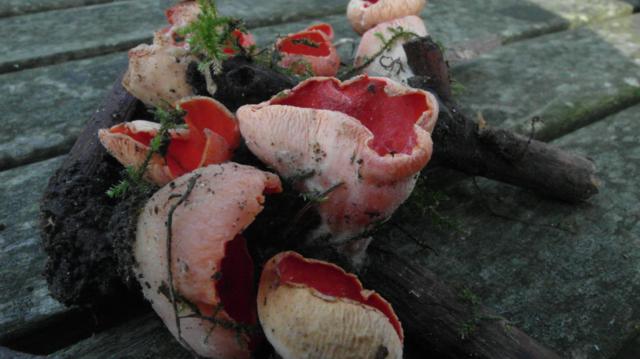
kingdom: Fungi
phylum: Ascomycota
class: Pezizomycetes
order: Pezizales
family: Sarcoscyphaceae
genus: Sarcoscypha
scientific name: Sarcoscypha coccinea
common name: skarlagen-pragtbæger
